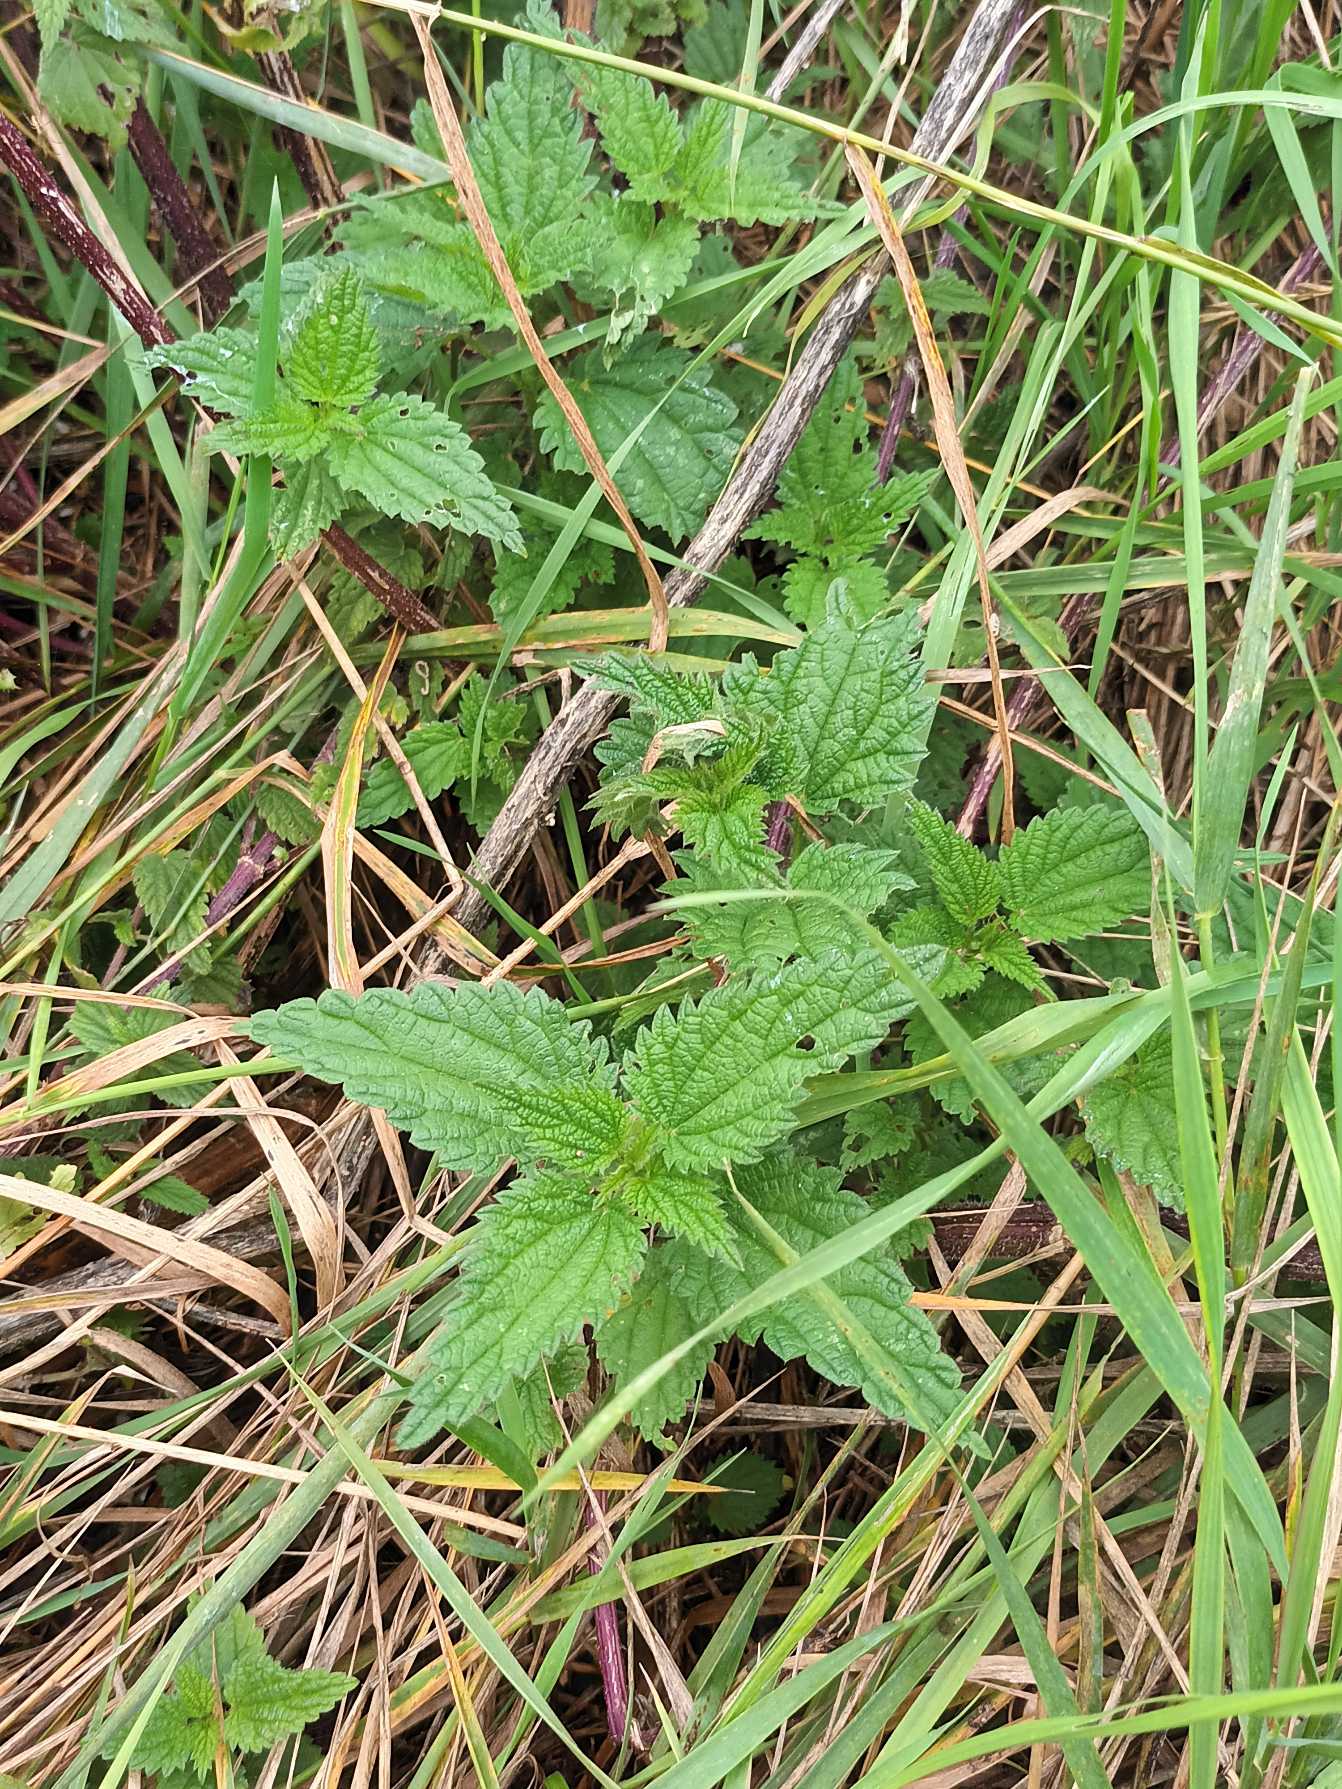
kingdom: Plantae
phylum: Tracheophyta
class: Magnoliopsida
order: Rosales
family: Urticaceae
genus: Urtica
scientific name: Urtica dioica
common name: Stor nælde
